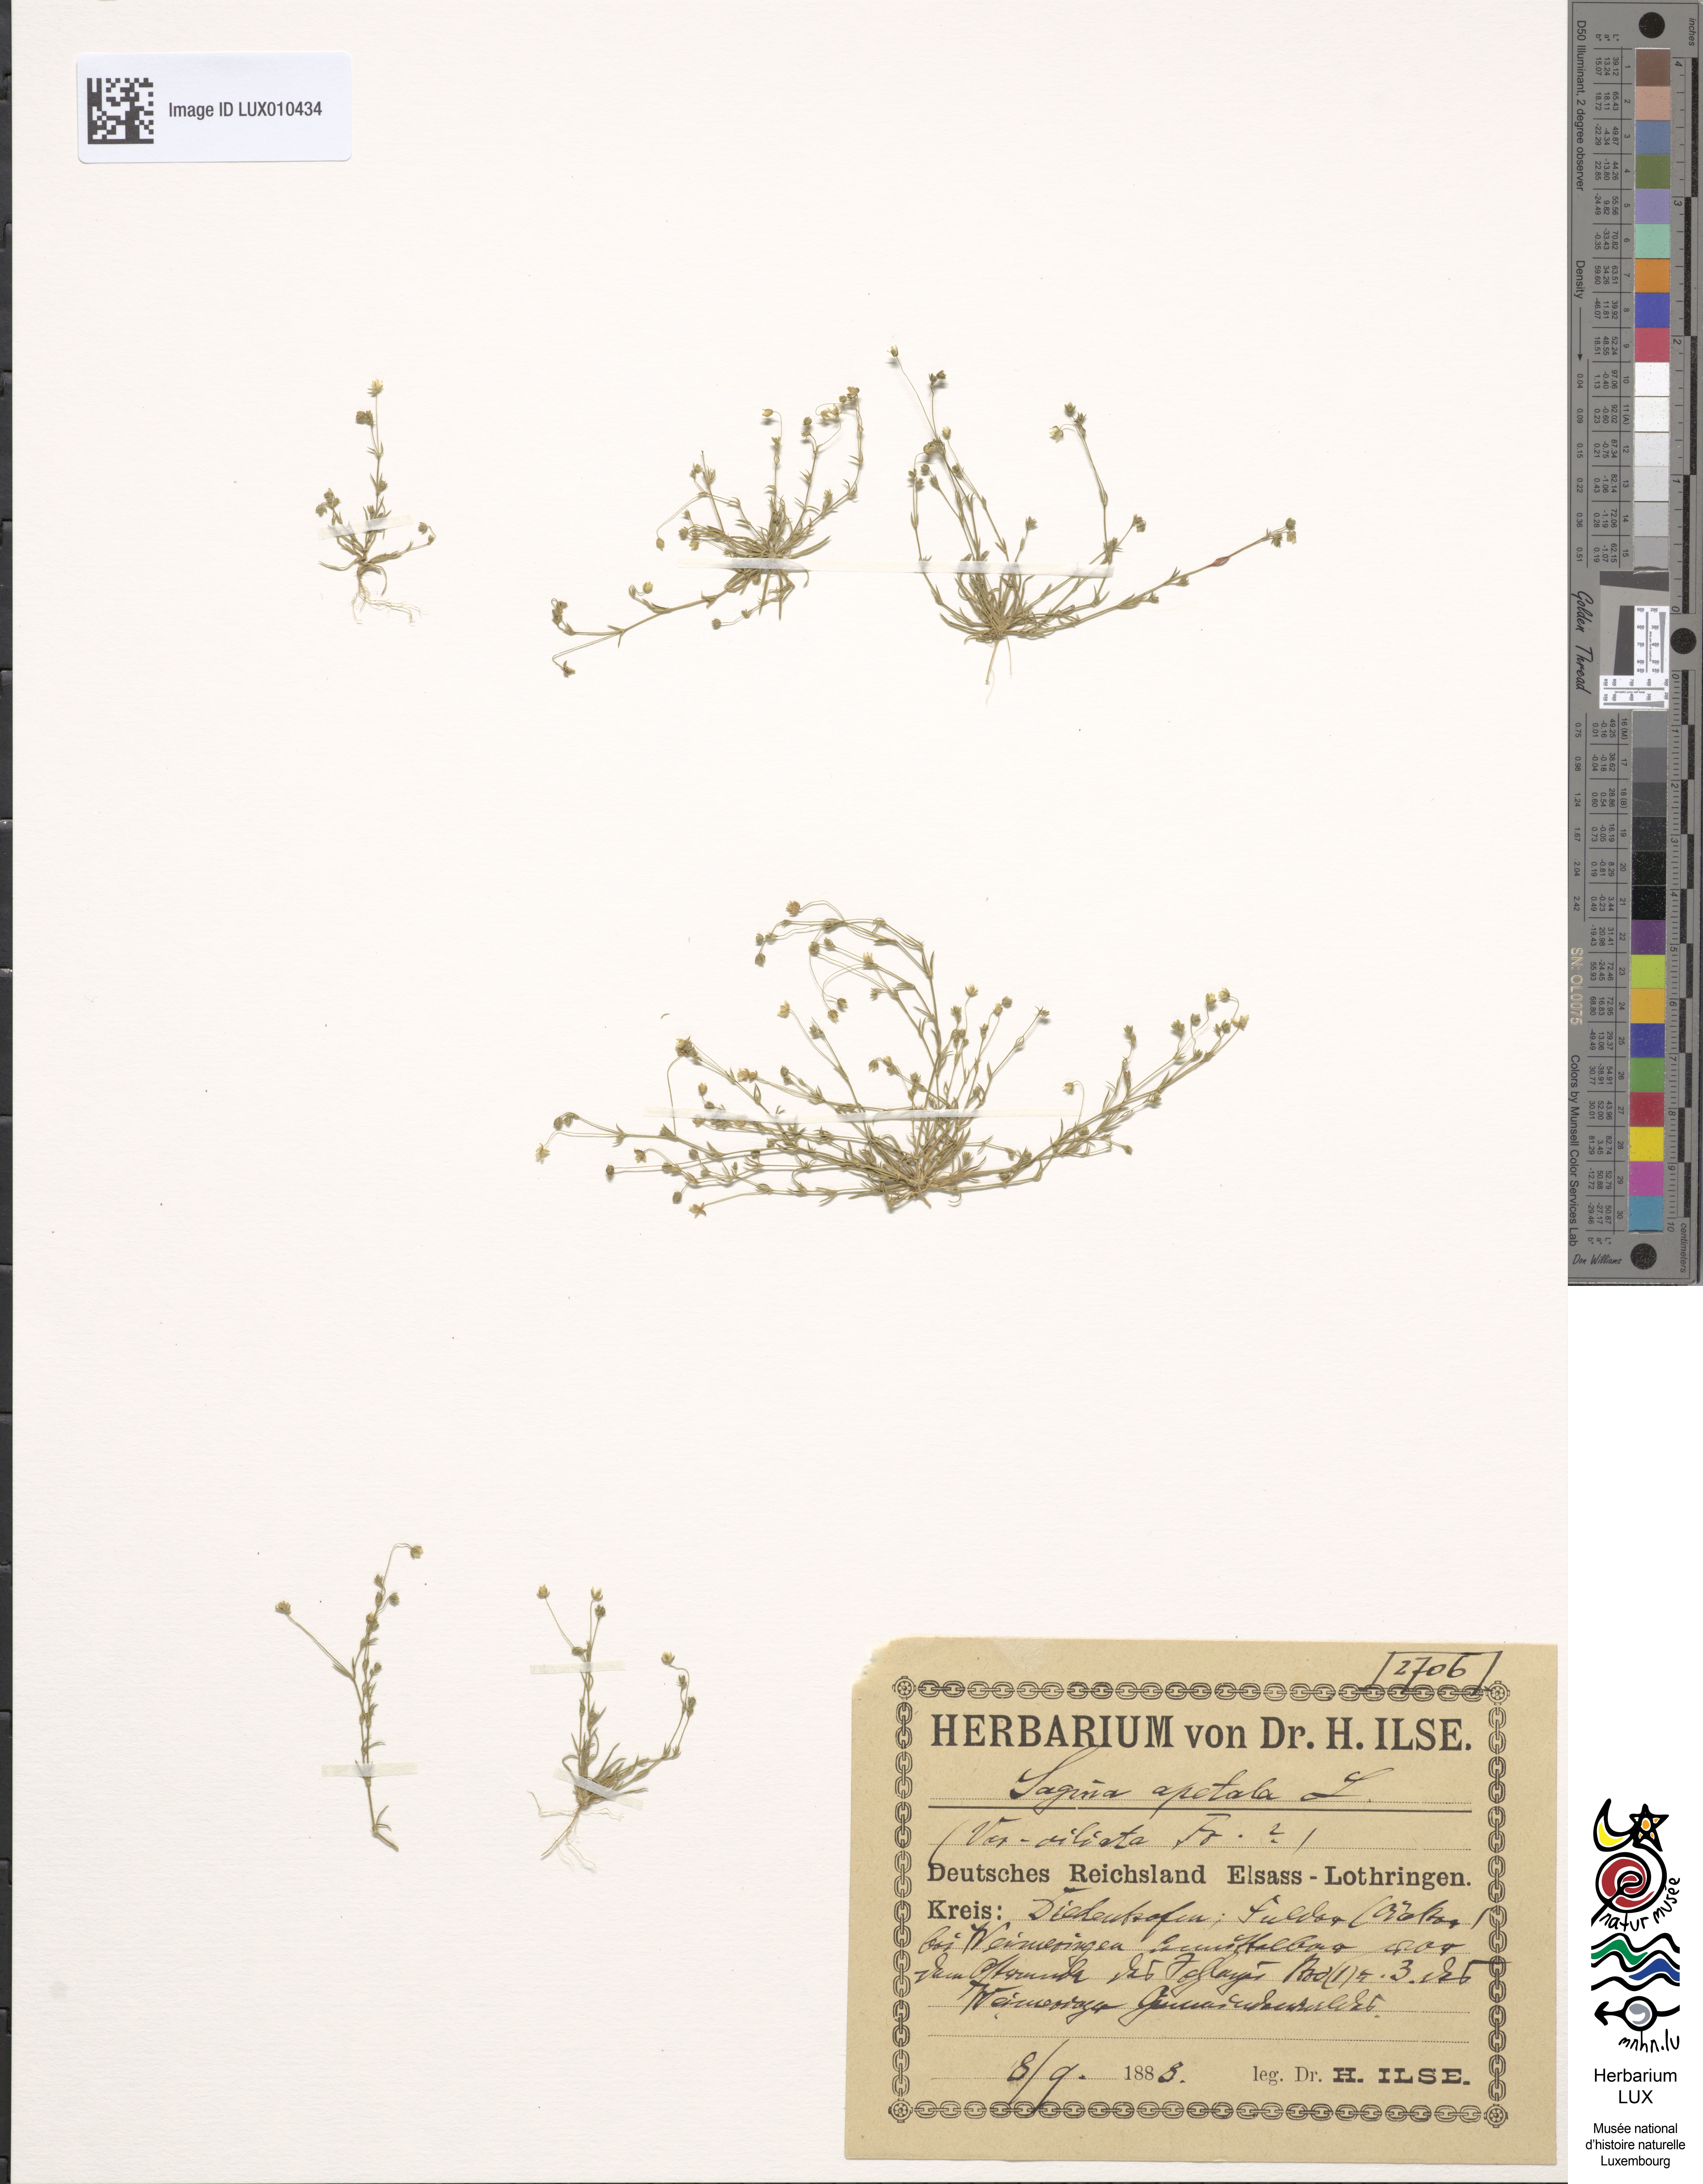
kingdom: Plantae
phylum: Tracheophyta
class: Magnoliopsida
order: Caryophyllales
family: Caryophyllaceae
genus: Sagina
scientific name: Sagina apetala
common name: Annual pearlwort
